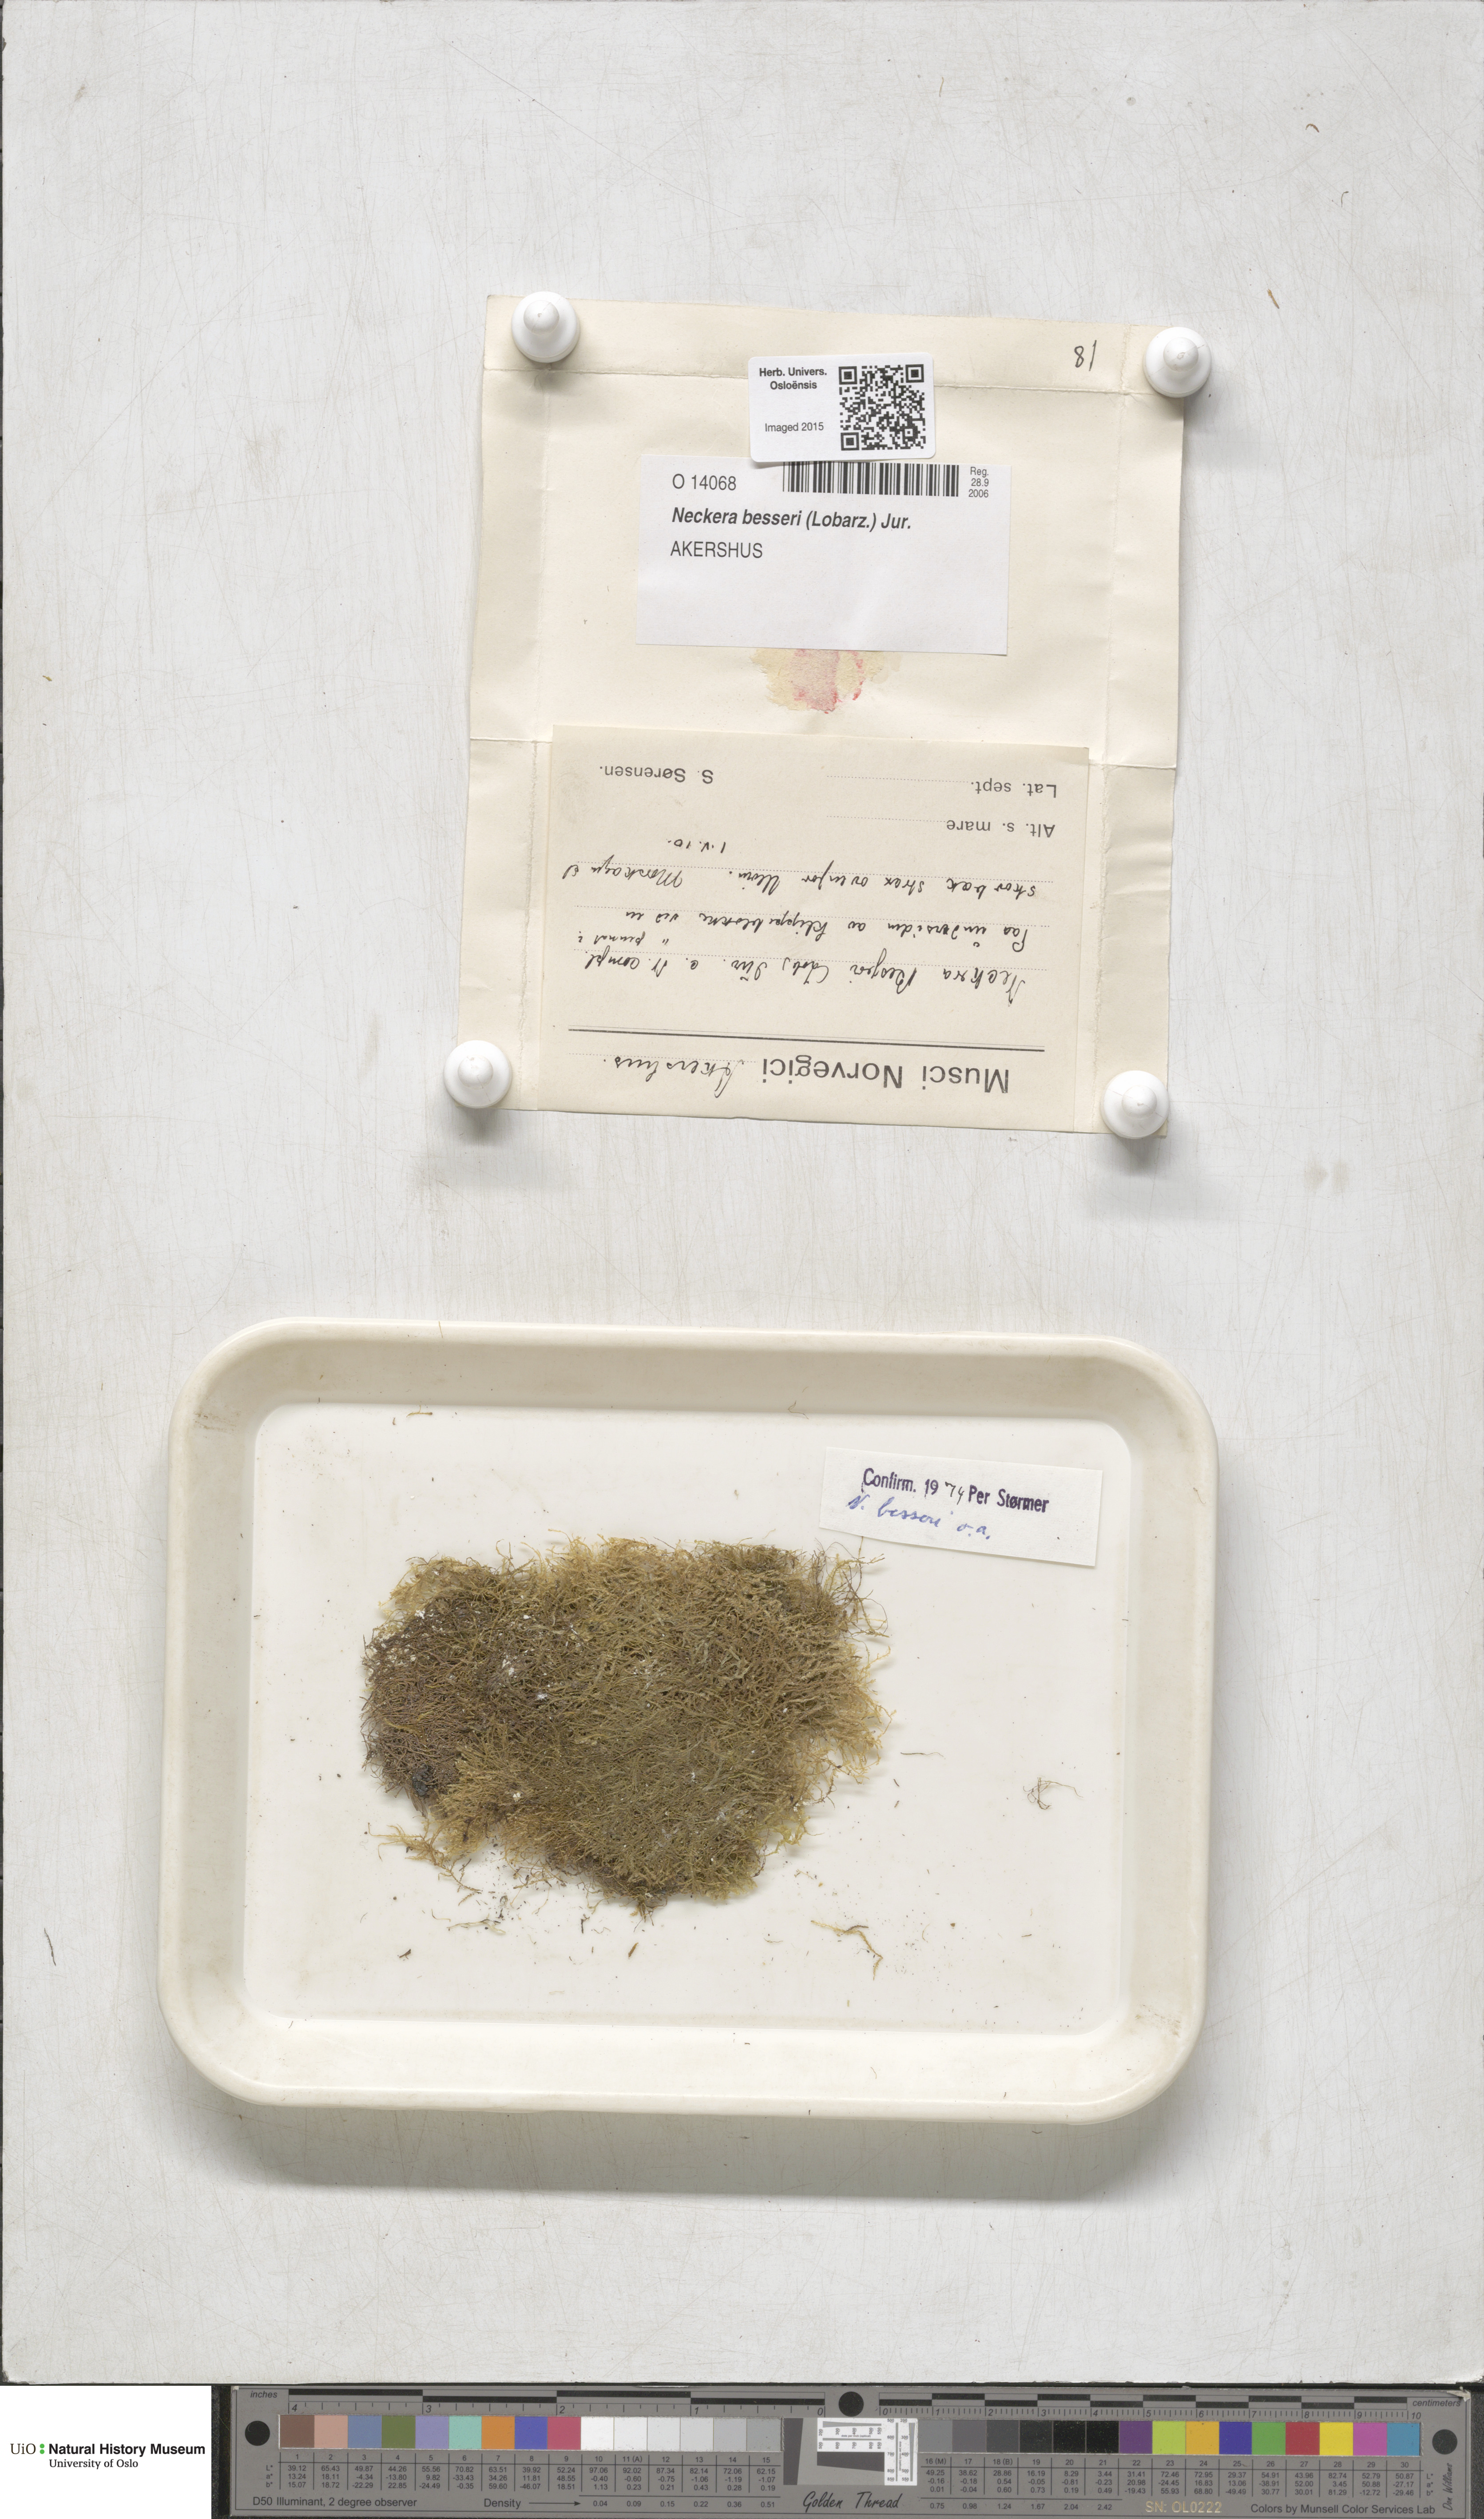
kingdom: Plantae
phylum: Bryophyta
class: Bryopsida
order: Hypnales
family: Neckeraceae
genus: Alleniella
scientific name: Alleniella besseri
